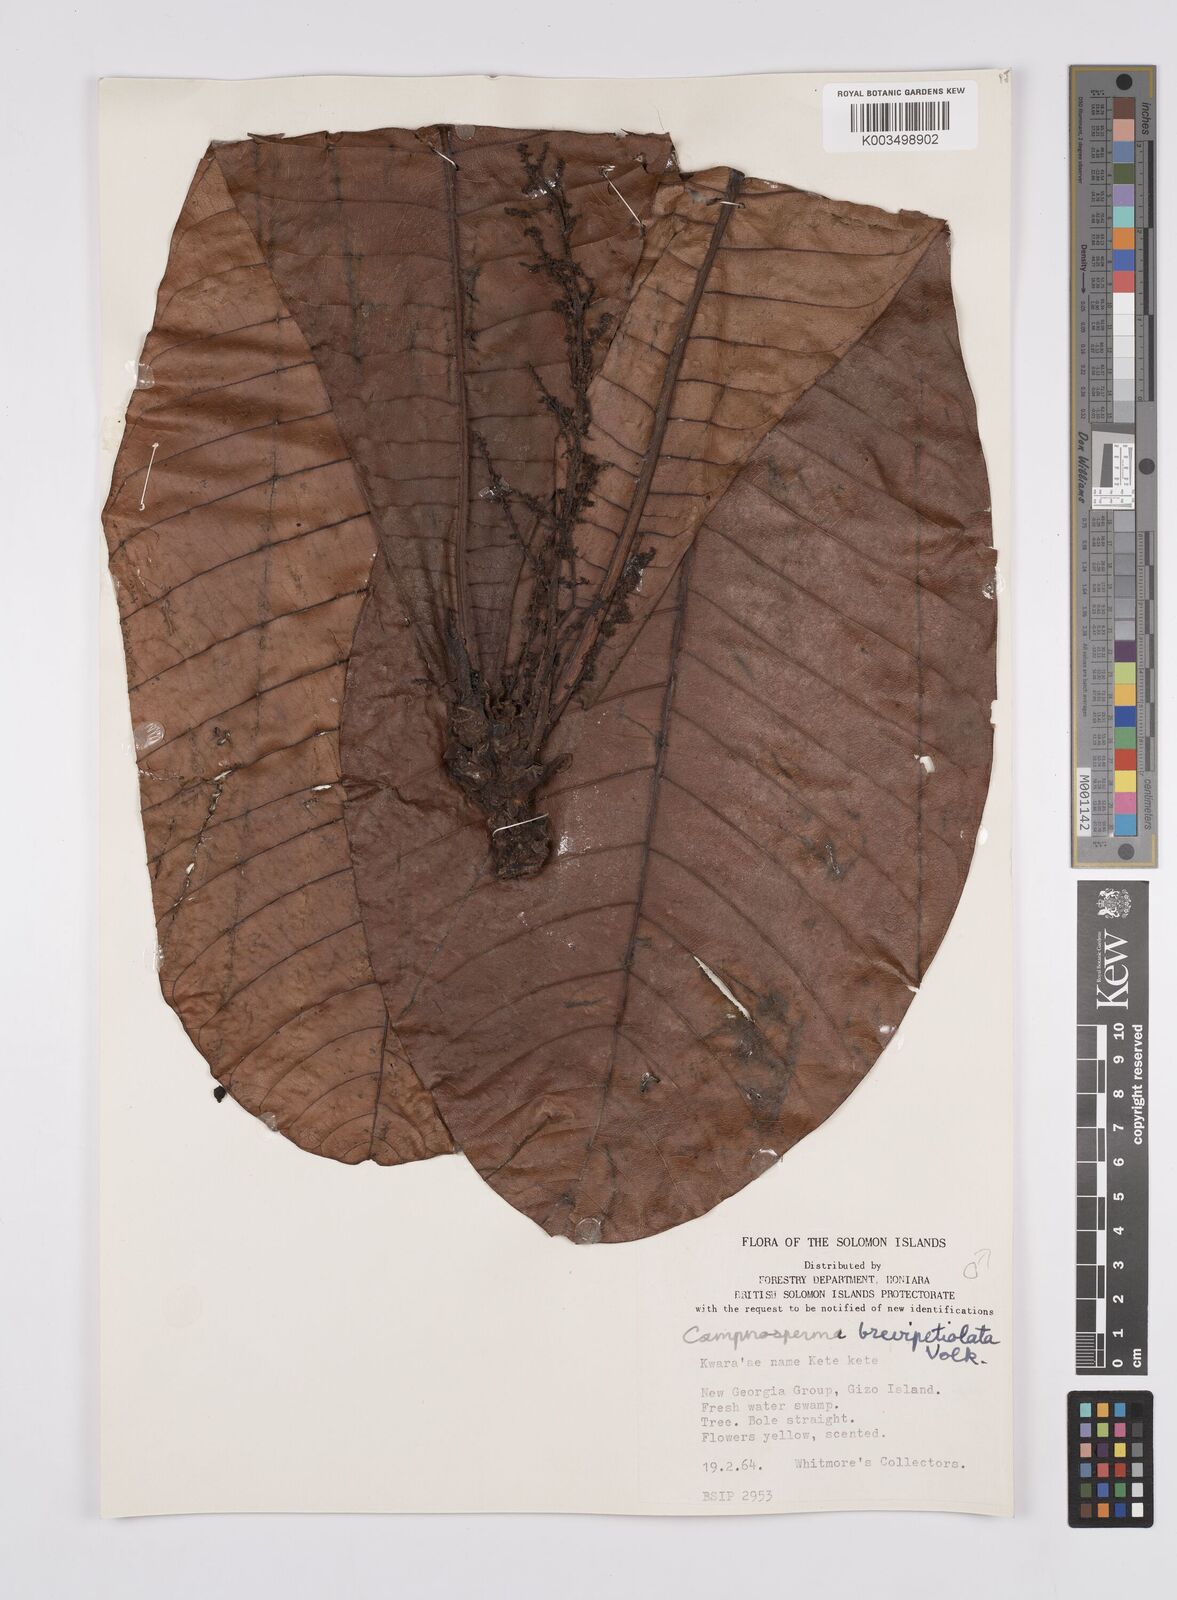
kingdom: Plantae
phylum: Tracheophyta
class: Magnoliopsida
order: Sapindales
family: Anacardiaceae
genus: Campnosperma
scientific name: Campnosperma brevipetiolatum
